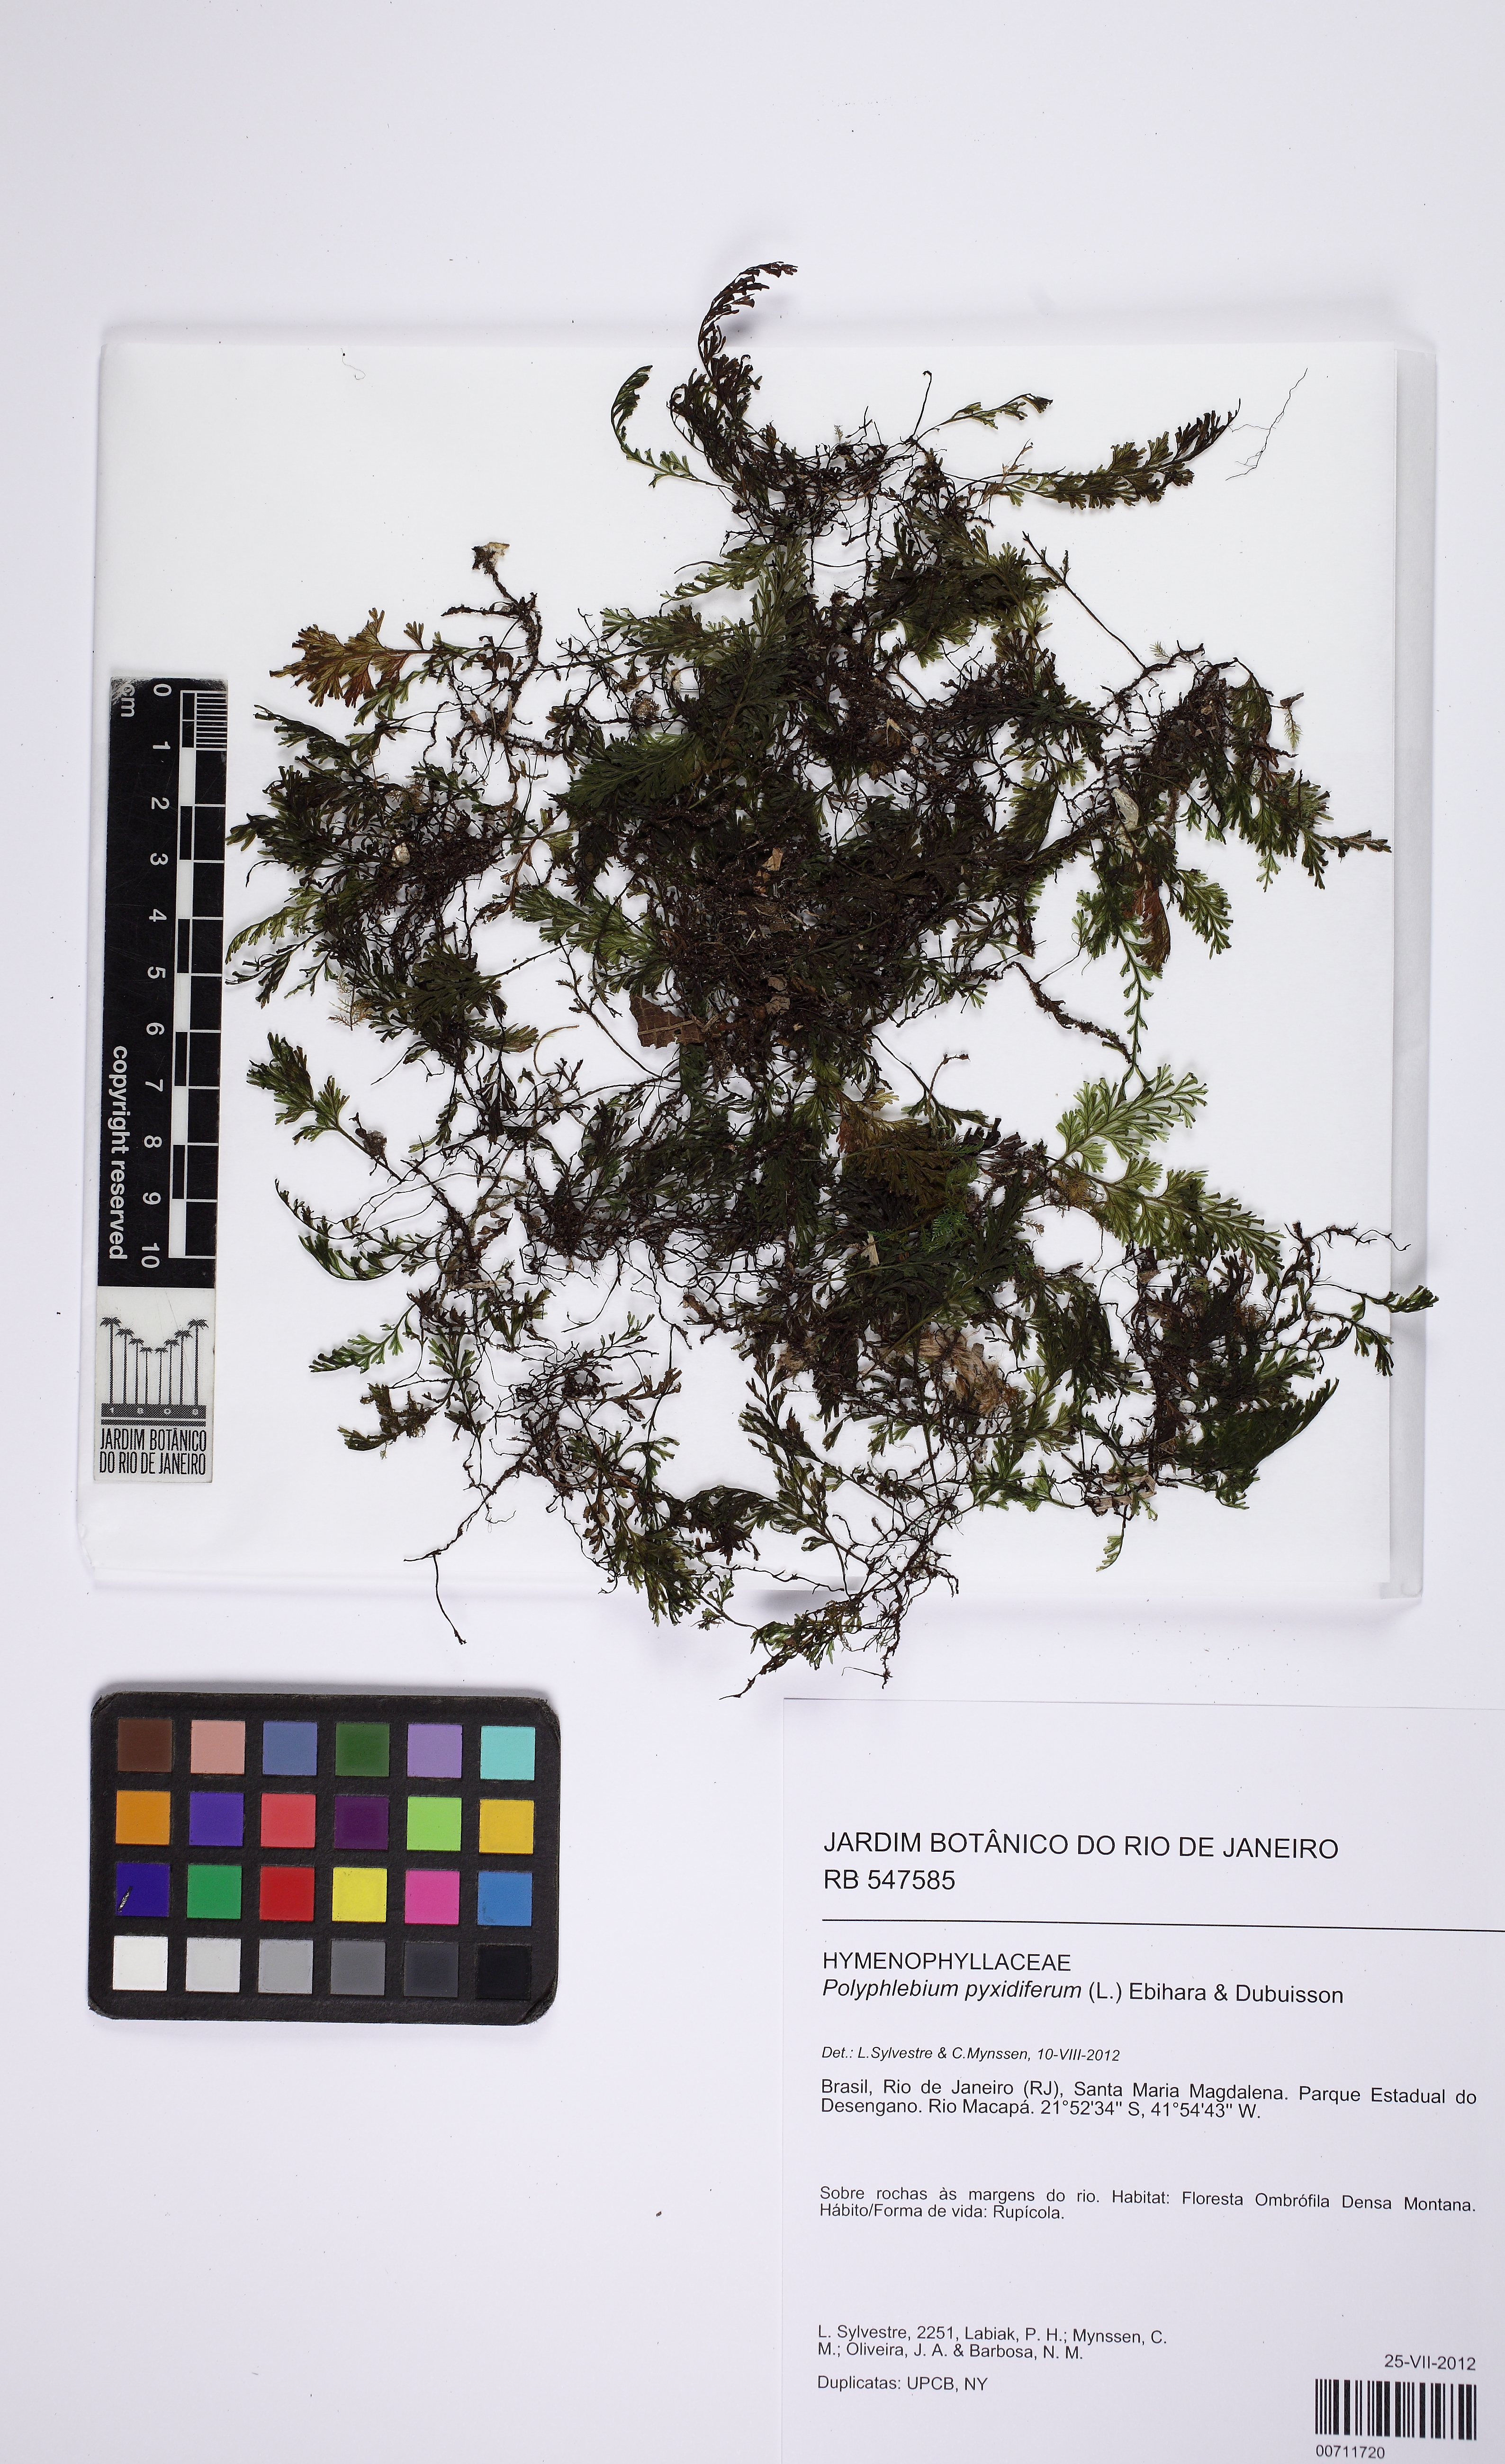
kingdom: Plantae
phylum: Tracheophyta
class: Polypodiopsida
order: Hymenophyllales
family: Hymenophyllaceae
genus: Polyphlebium
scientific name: Polyphlebium diaphanum
